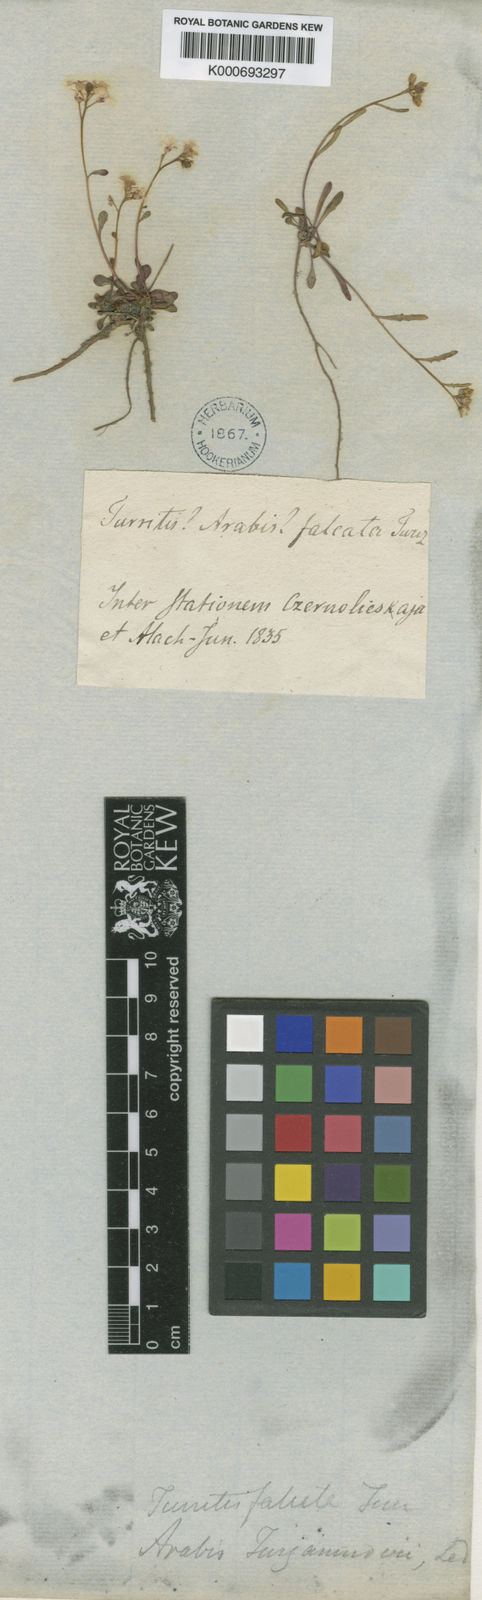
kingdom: Plantae
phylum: Tracheophyta
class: Magnoliopsida
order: Brassicales
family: Brassicaceae
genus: Boechera
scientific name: Boechera falcata
